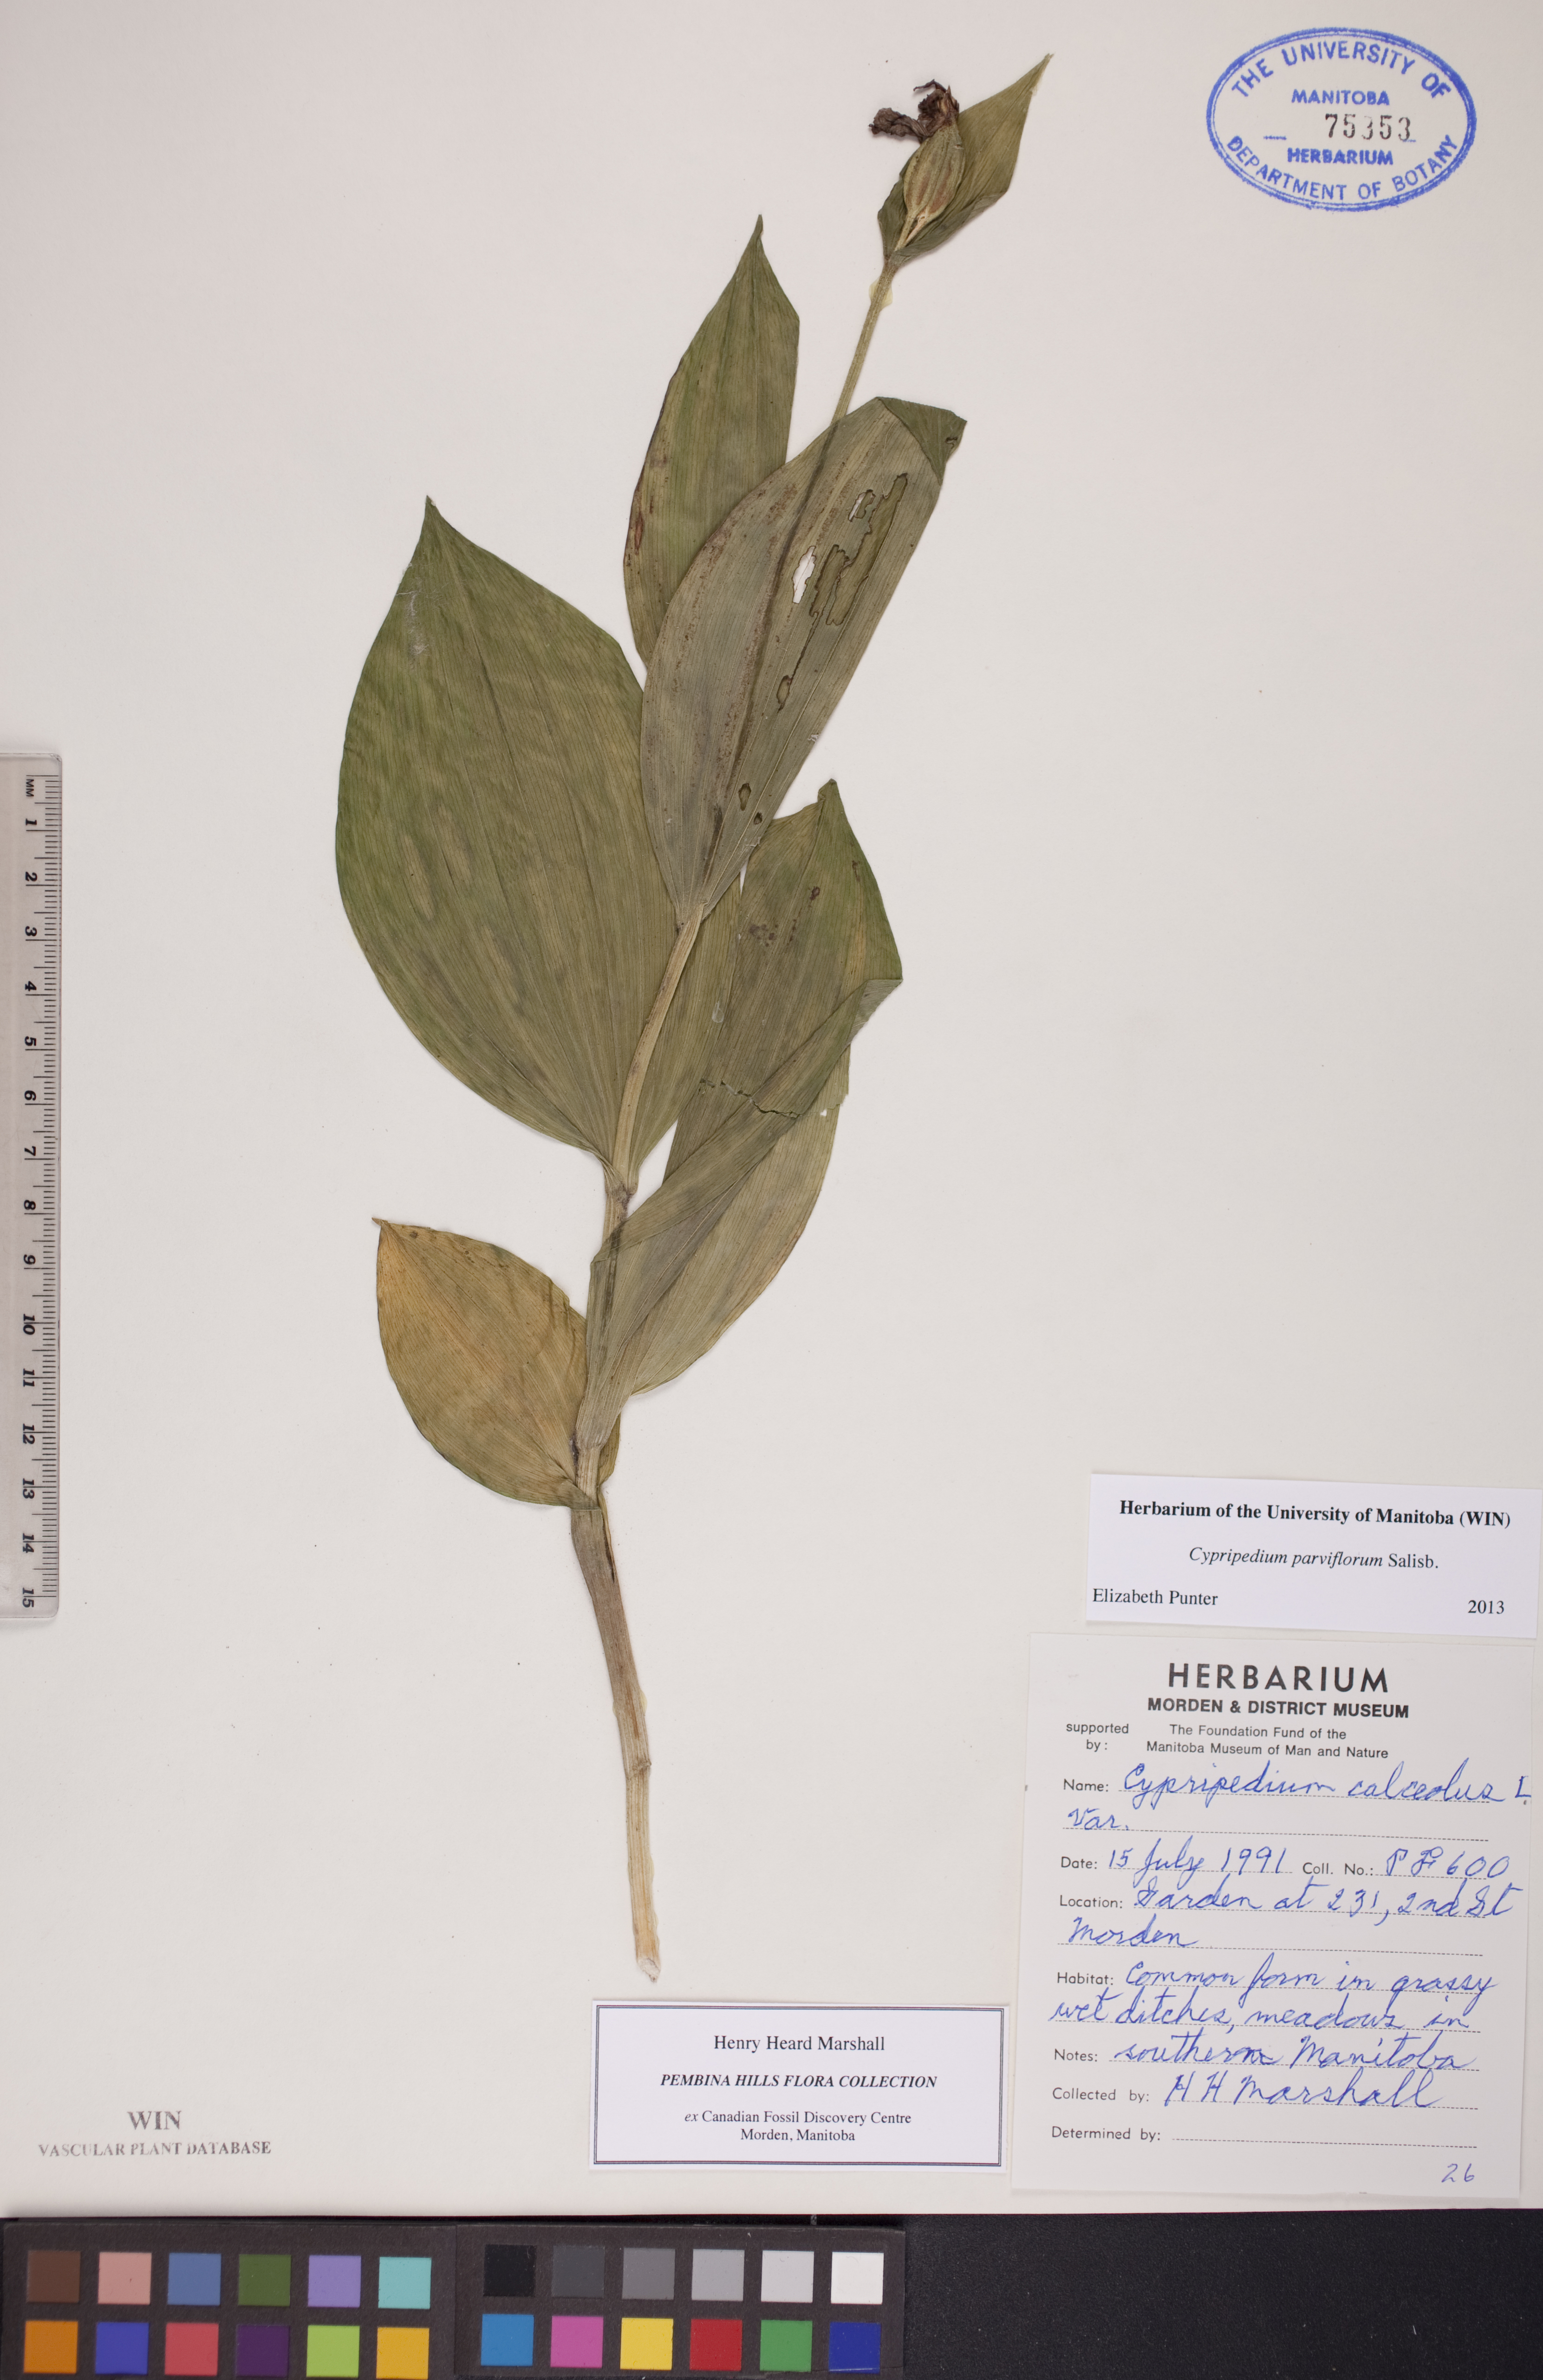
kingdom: Plantae
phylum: Tracheophyta
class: Liliopsida
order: Asparagales
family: Orchidaceae
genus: Cypripedium
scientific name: Cypripedium parviflorum
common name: American yellow lady's-slipper
